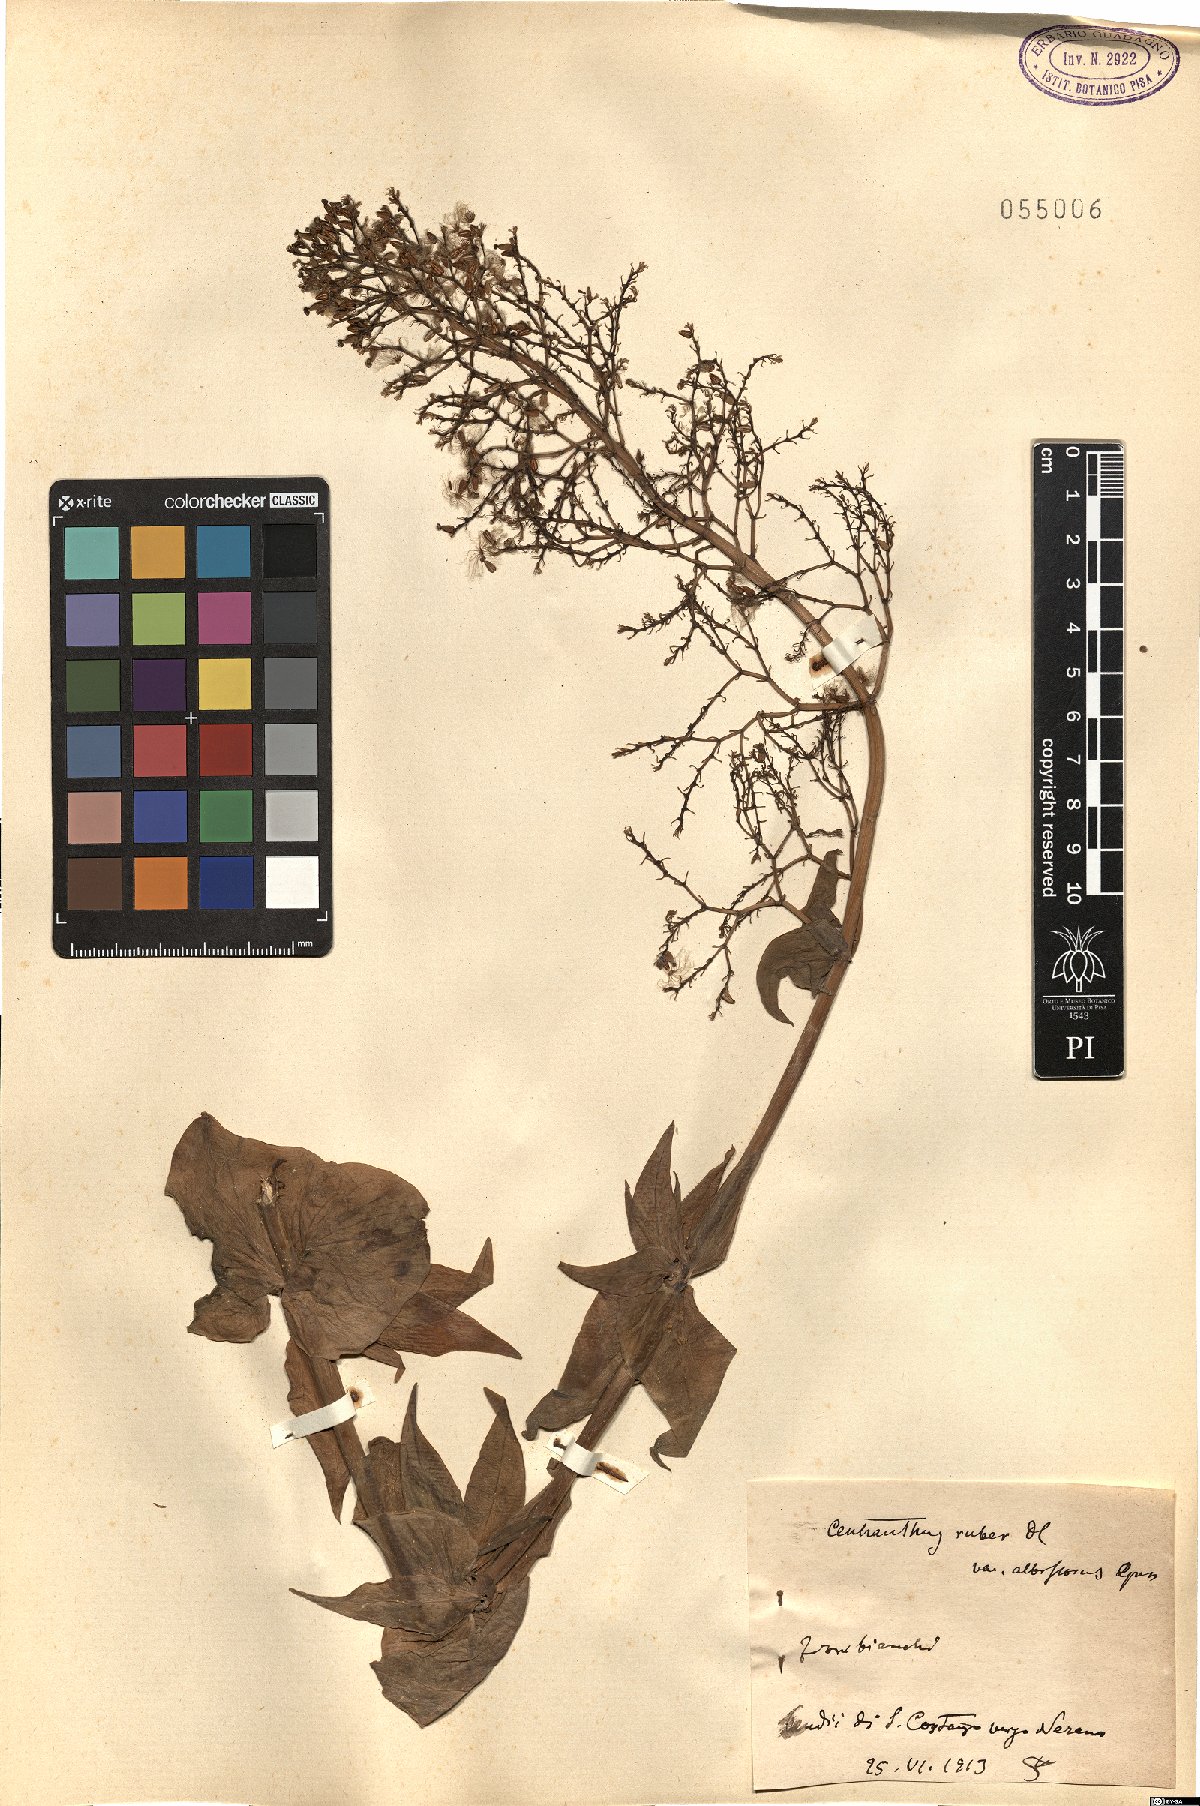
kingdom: Plantae
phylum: Tracheophyta
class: Magnoliopsida
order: Dipsacales
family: Caprifoliaceae
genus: Centranthus
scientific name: Centranthus ruber
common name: Red valerian
